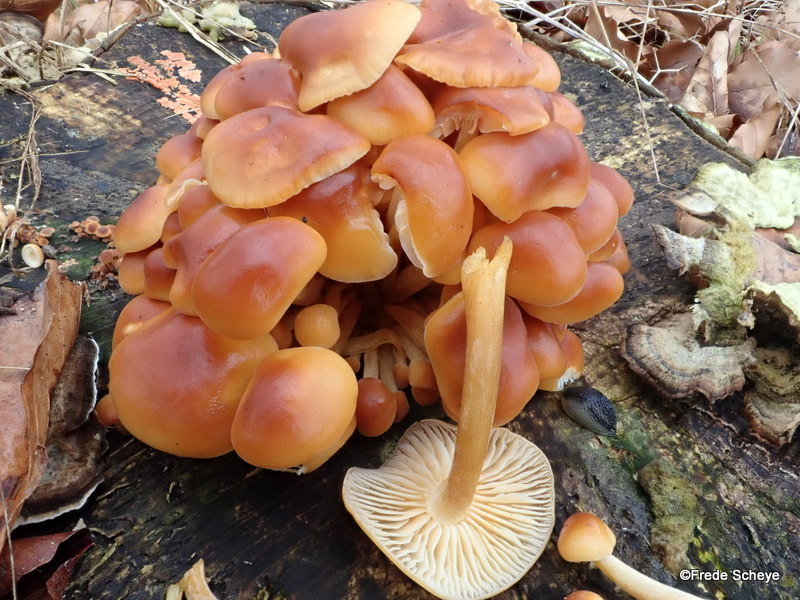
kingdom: Fungi
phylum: Basidiomycota
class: Agaricomycetes
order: Agaricales
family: Physalacriaceae
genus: Flammulina
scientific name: Flammulina velutipes
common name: gul fløjlsfod
